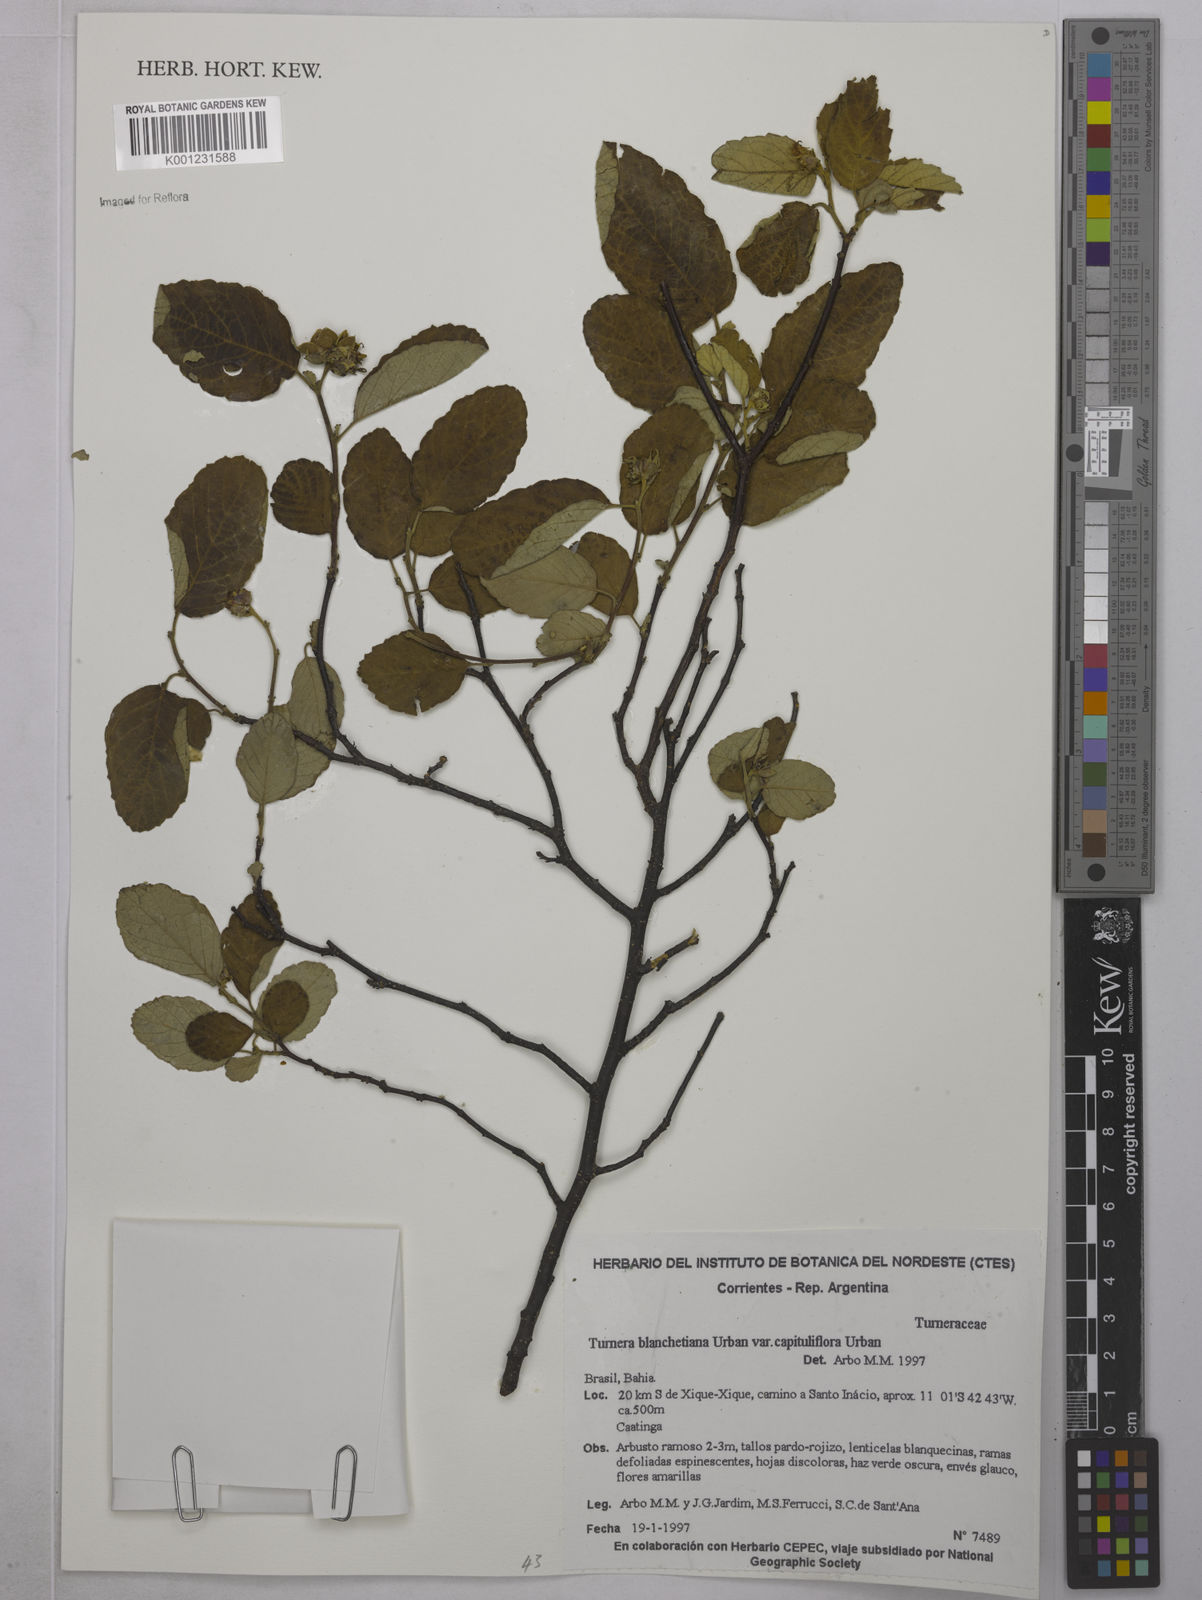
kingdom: Plantae
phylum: Tracheophyta
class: Magnoliopsida
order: Malpighiales
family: Turneraceae
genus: Turnera
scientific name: Turnera blanchetiana
